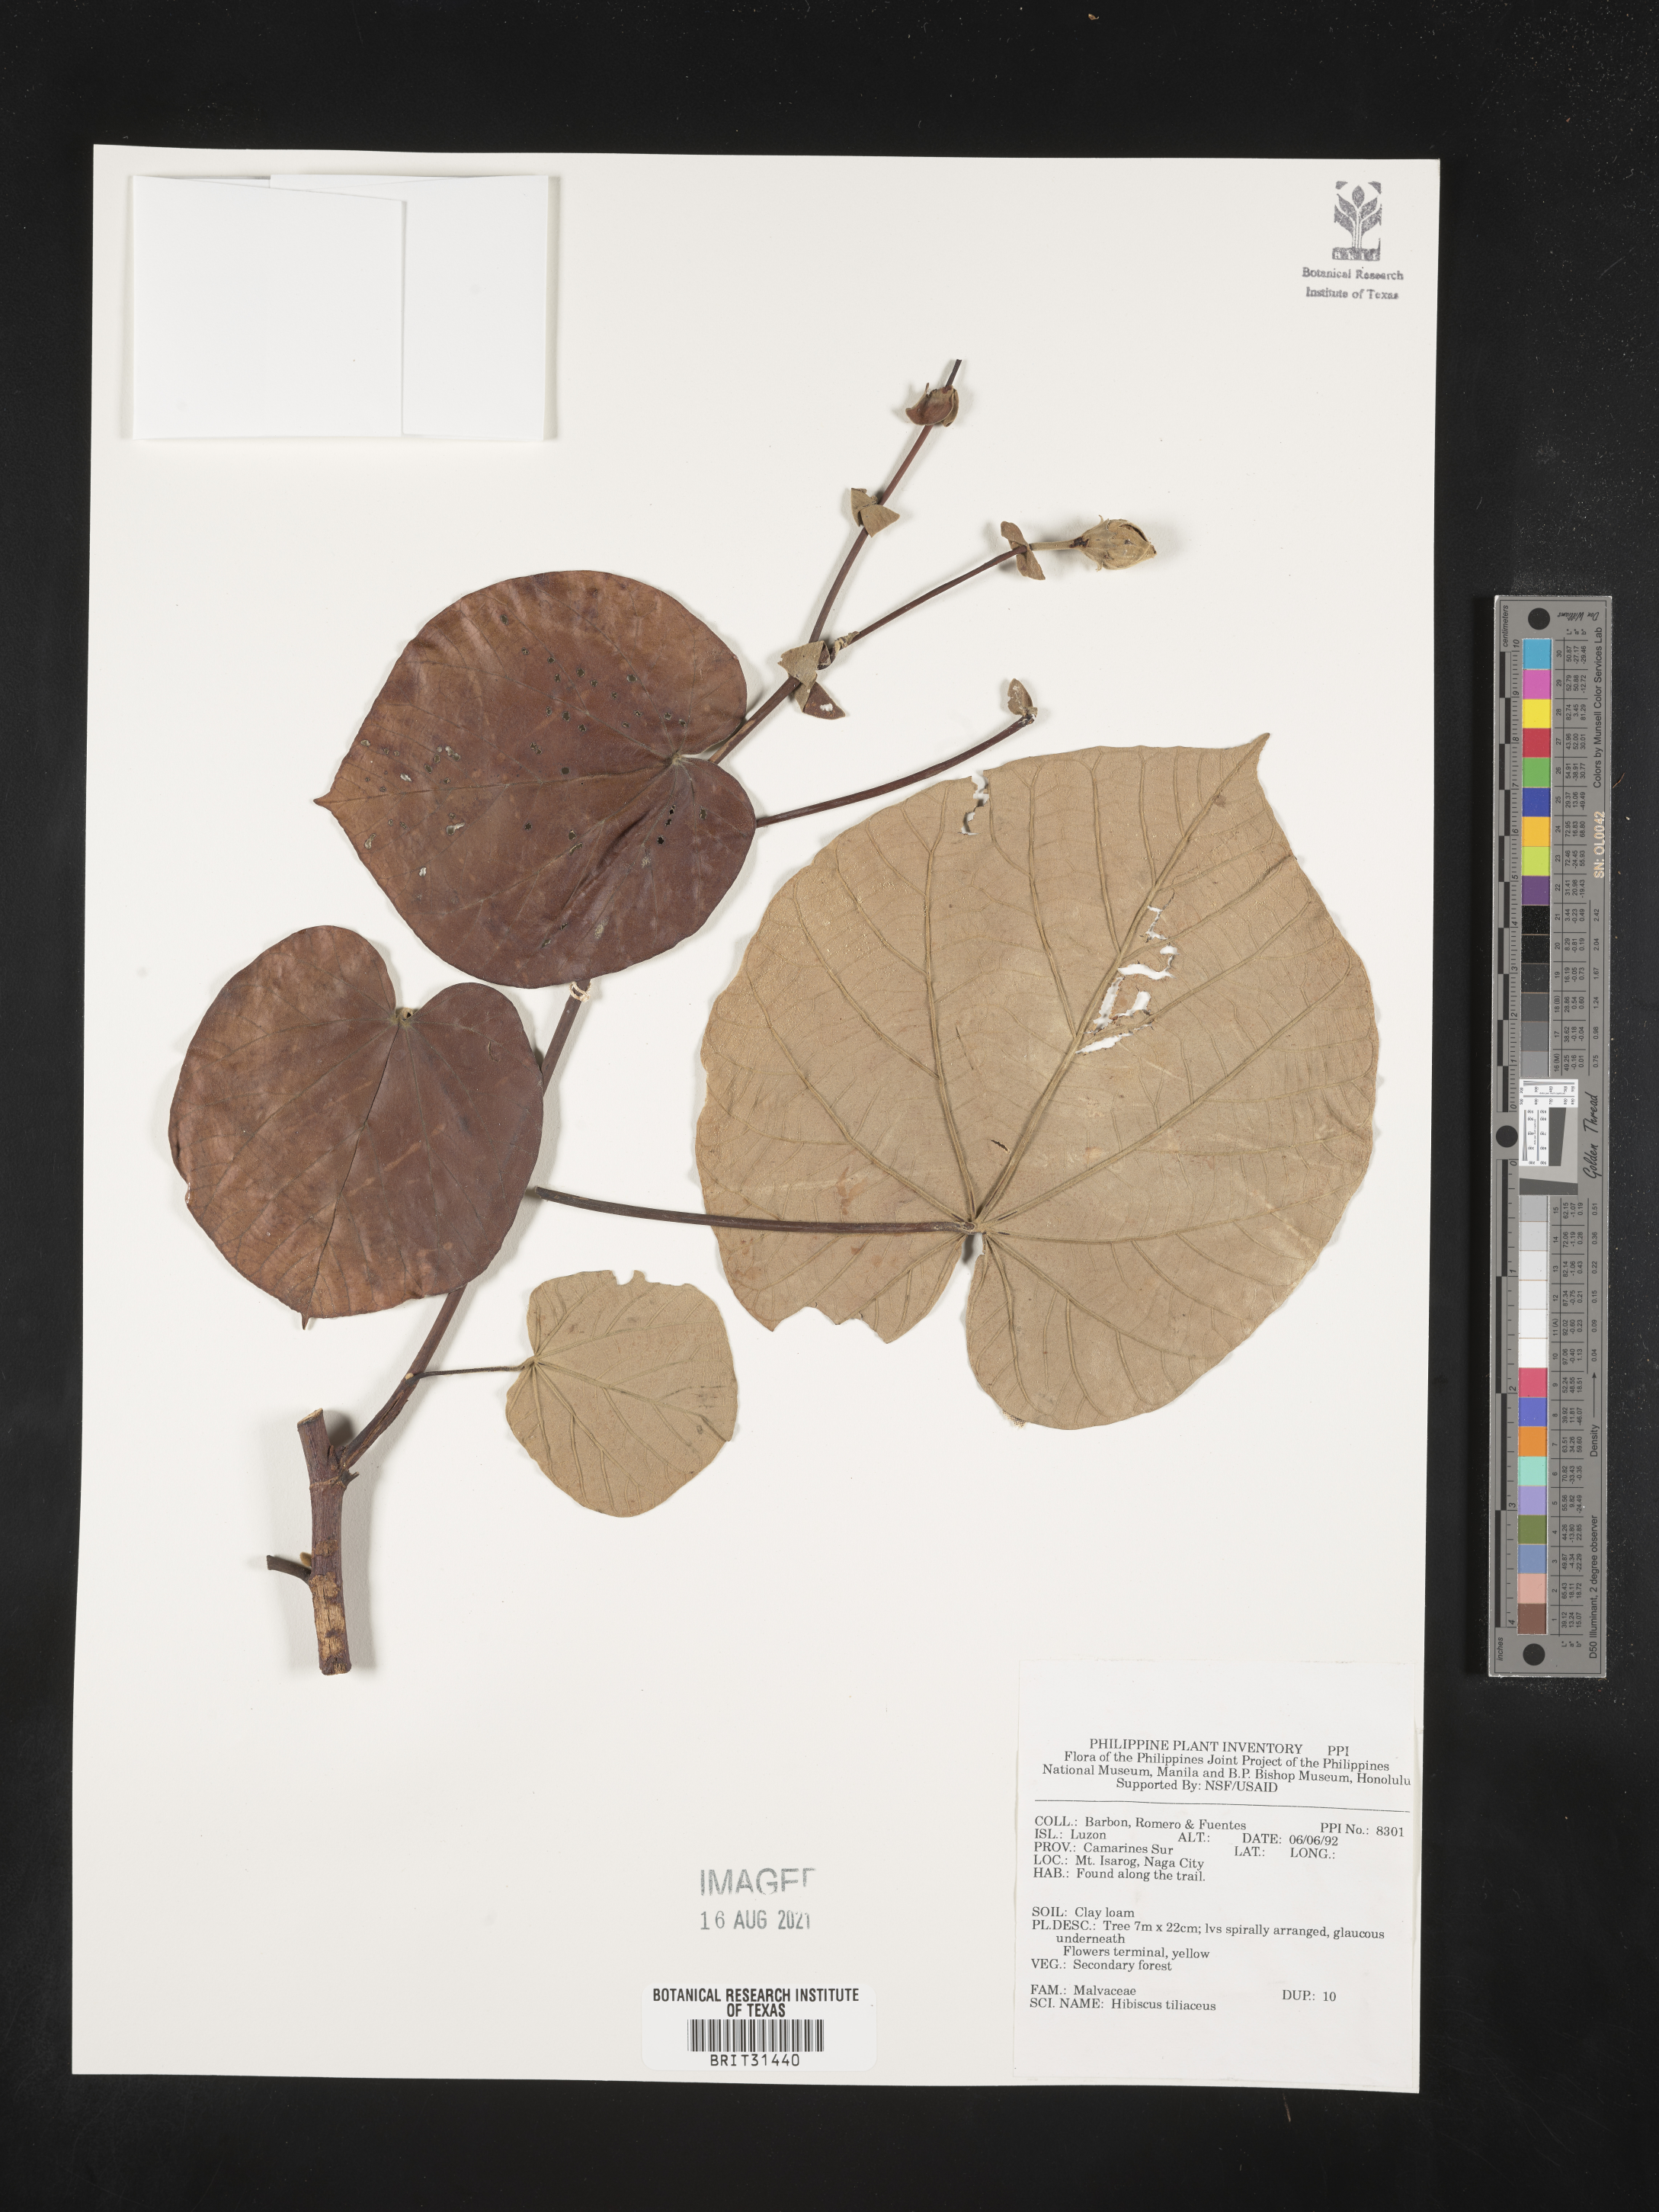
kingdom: Plantae
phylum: Tracheophyta
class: Magnoliopsida
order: Malvales
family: Malvaceae
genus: Talipariti
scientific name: Talipariti tiliaceum
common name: Sea hibiscus
